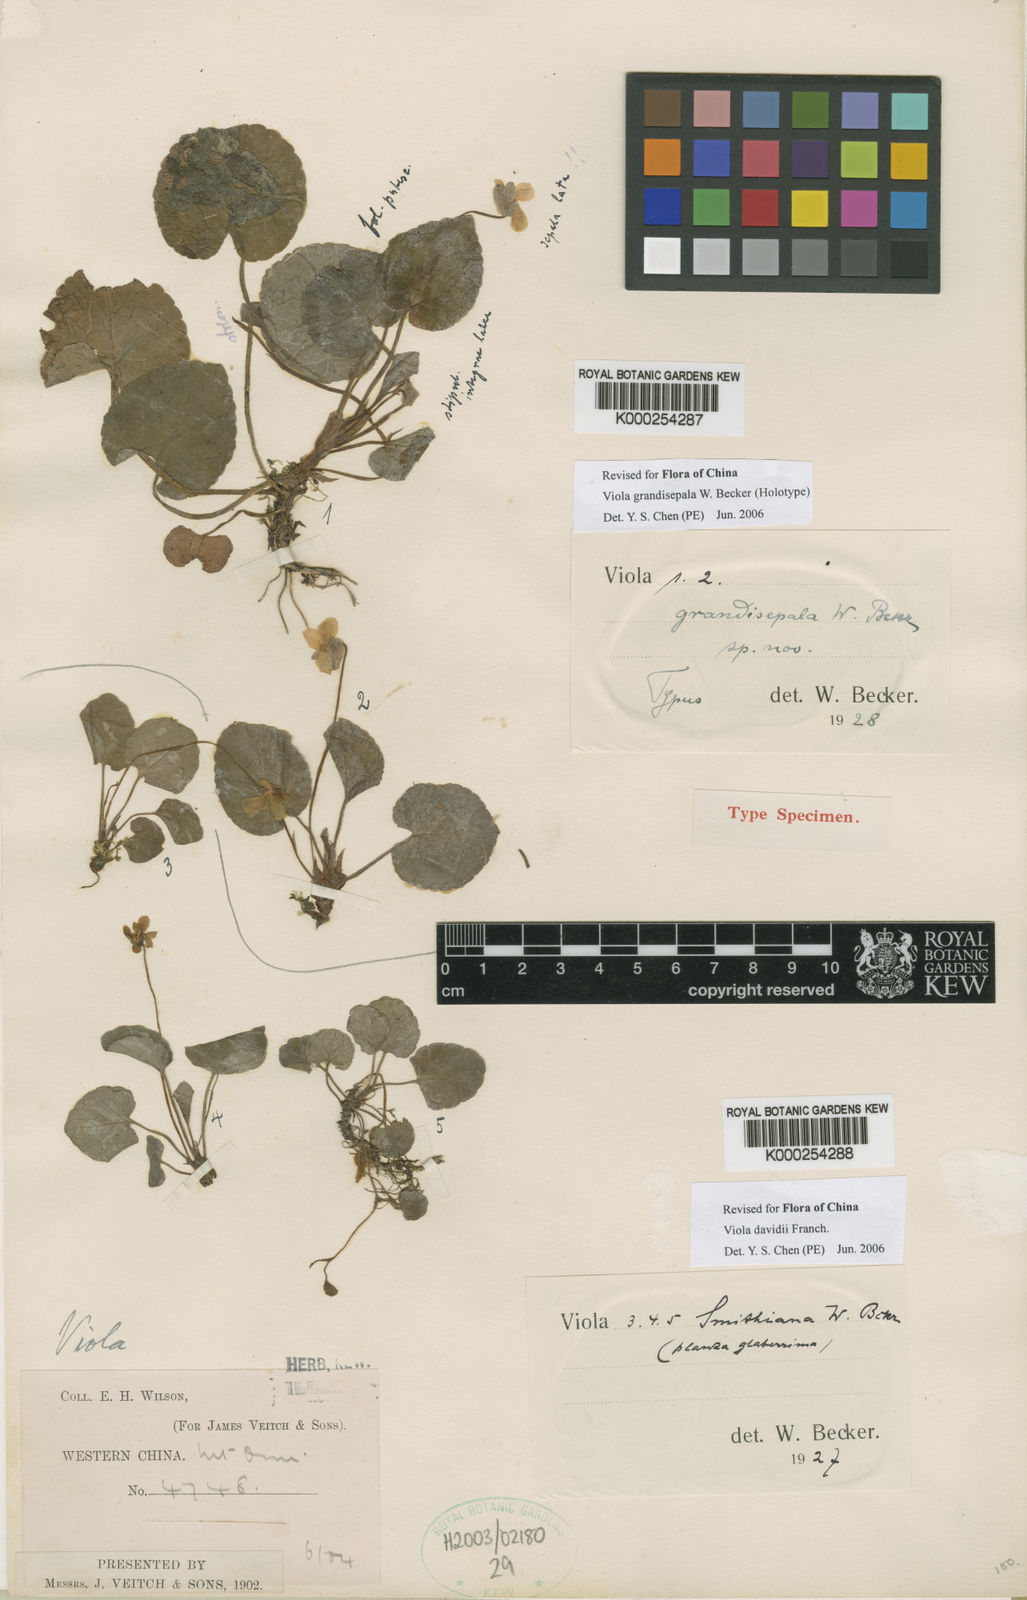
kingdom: Plantae
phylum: Tracheophyta
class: Magnoliopsida
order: Malpighiales
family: Violaceae
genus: Viola
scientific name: Viola grandisepala
